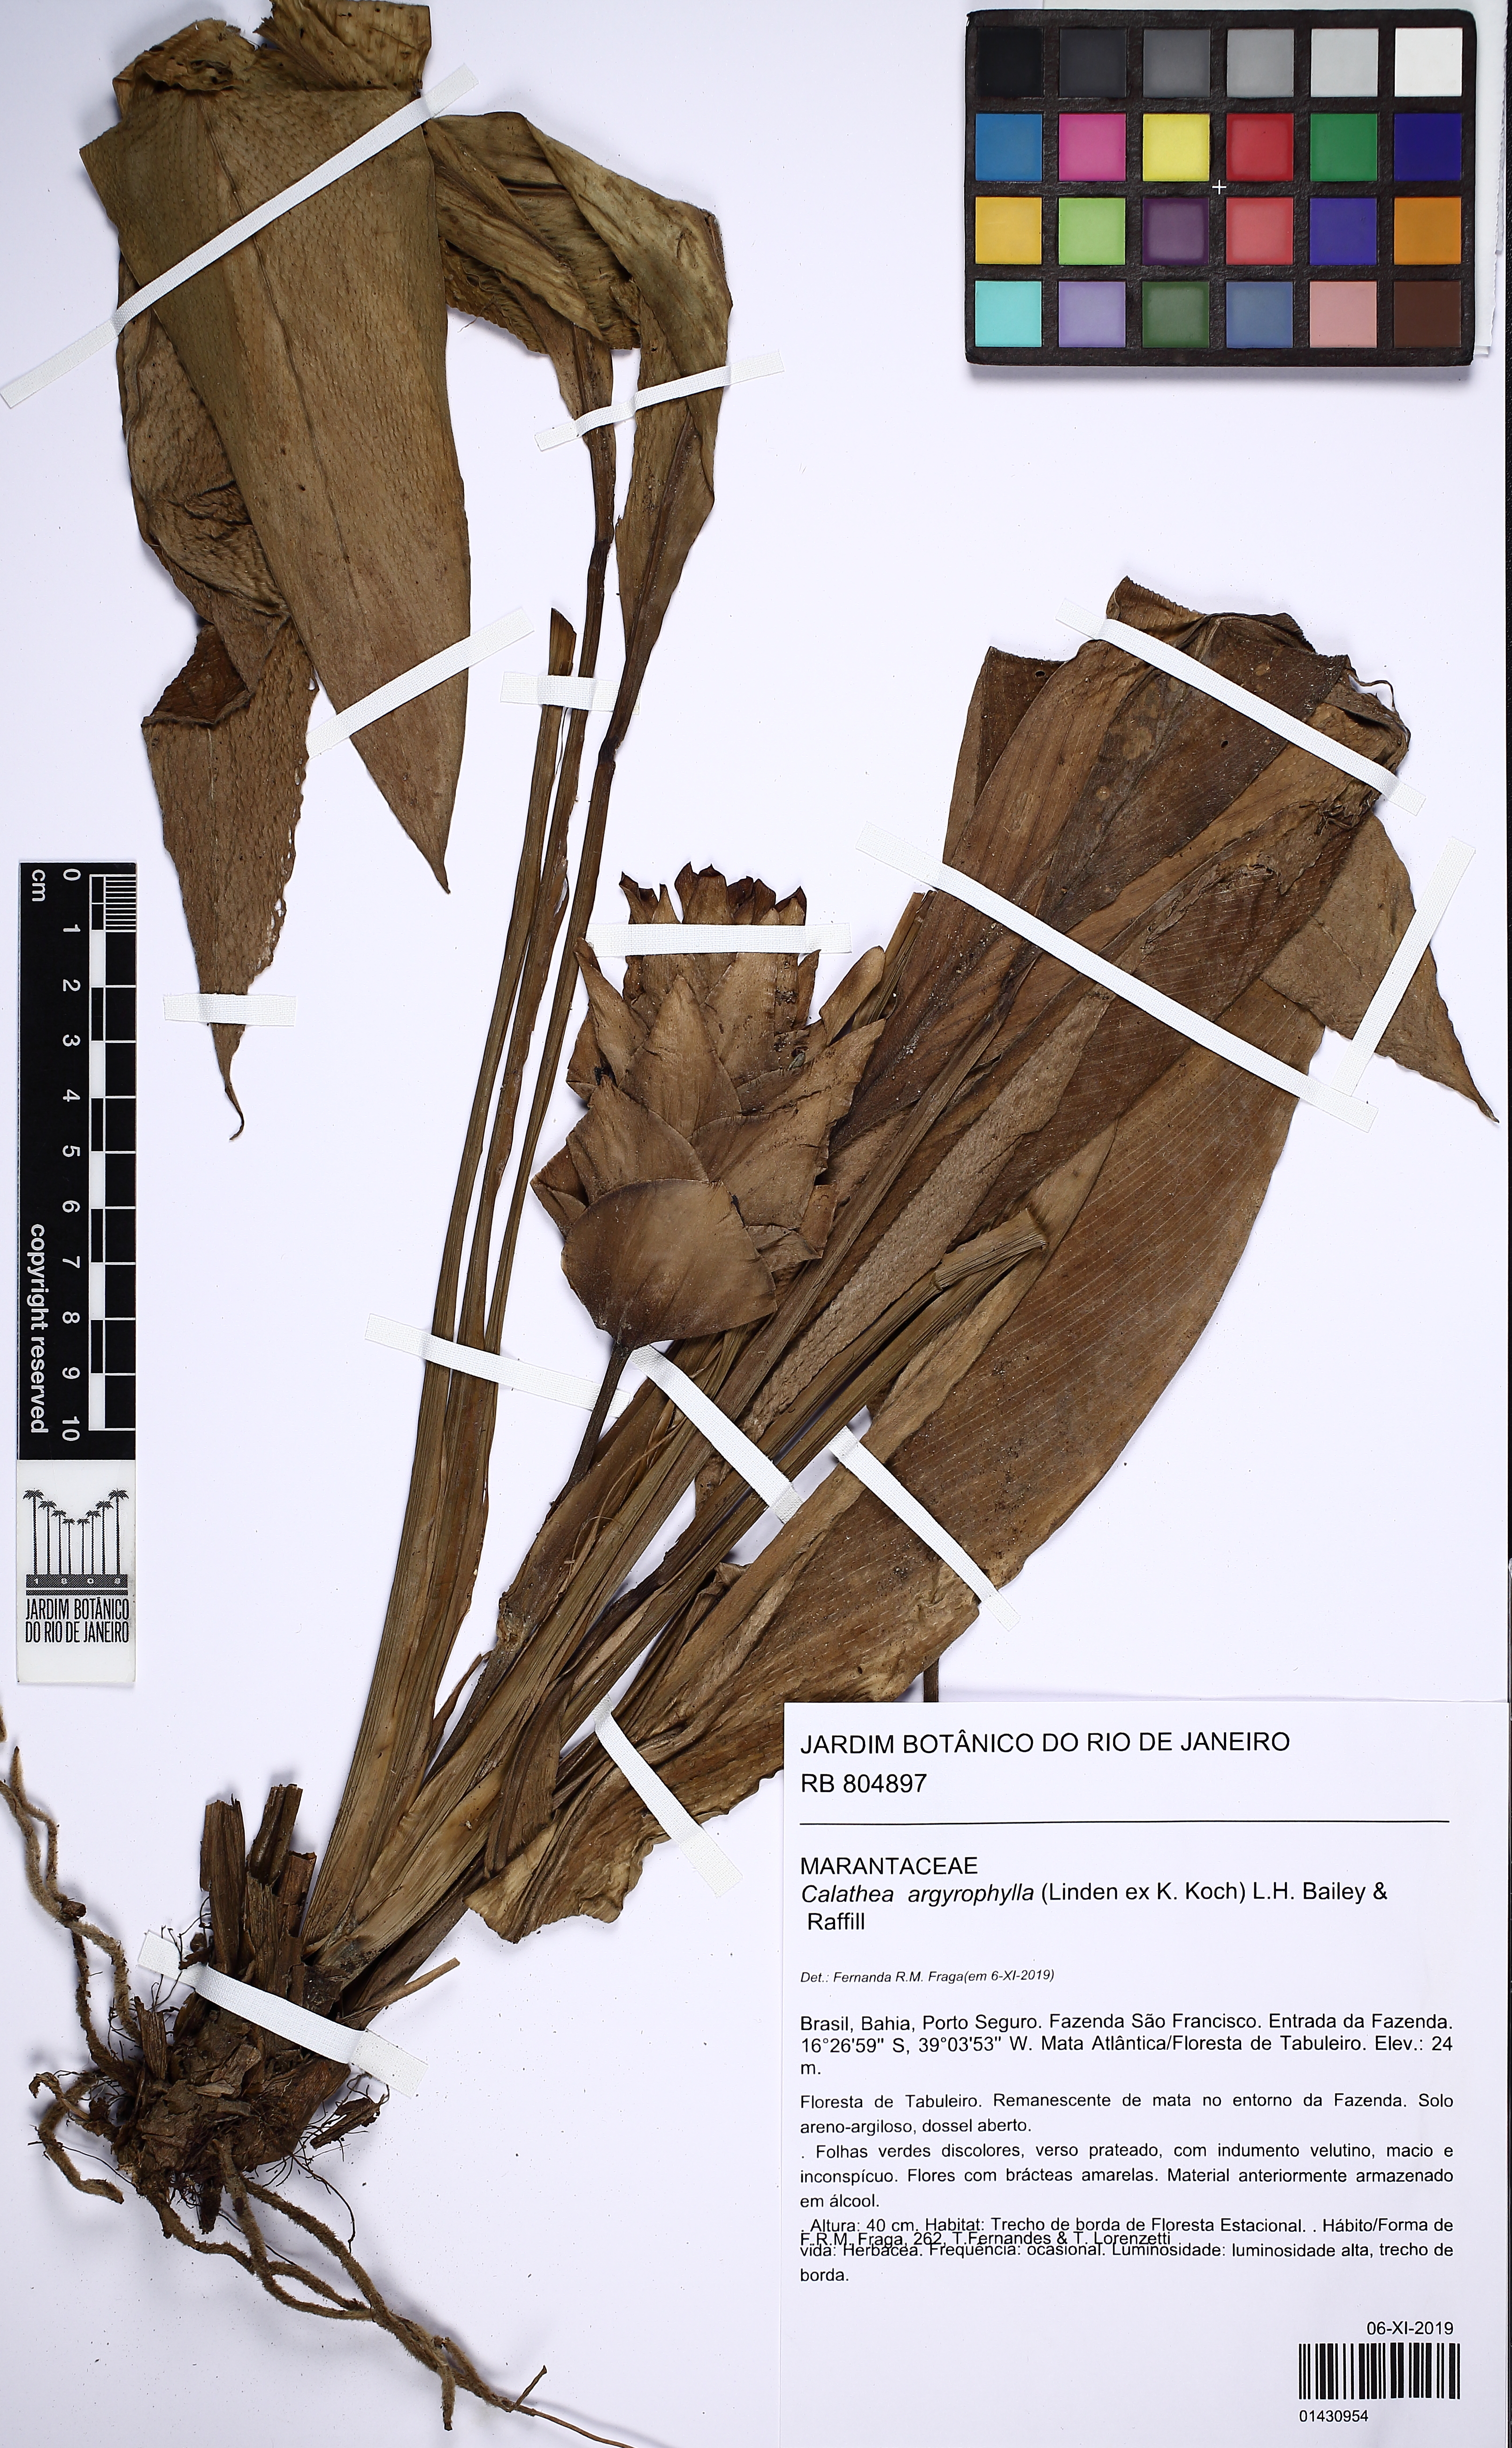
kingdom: Plantae
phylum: Tracheophyta
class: Liliopsida
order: Zingiberales
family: Marantaceae
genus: Goeppertia
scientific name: Goeppertia argyrophylla
